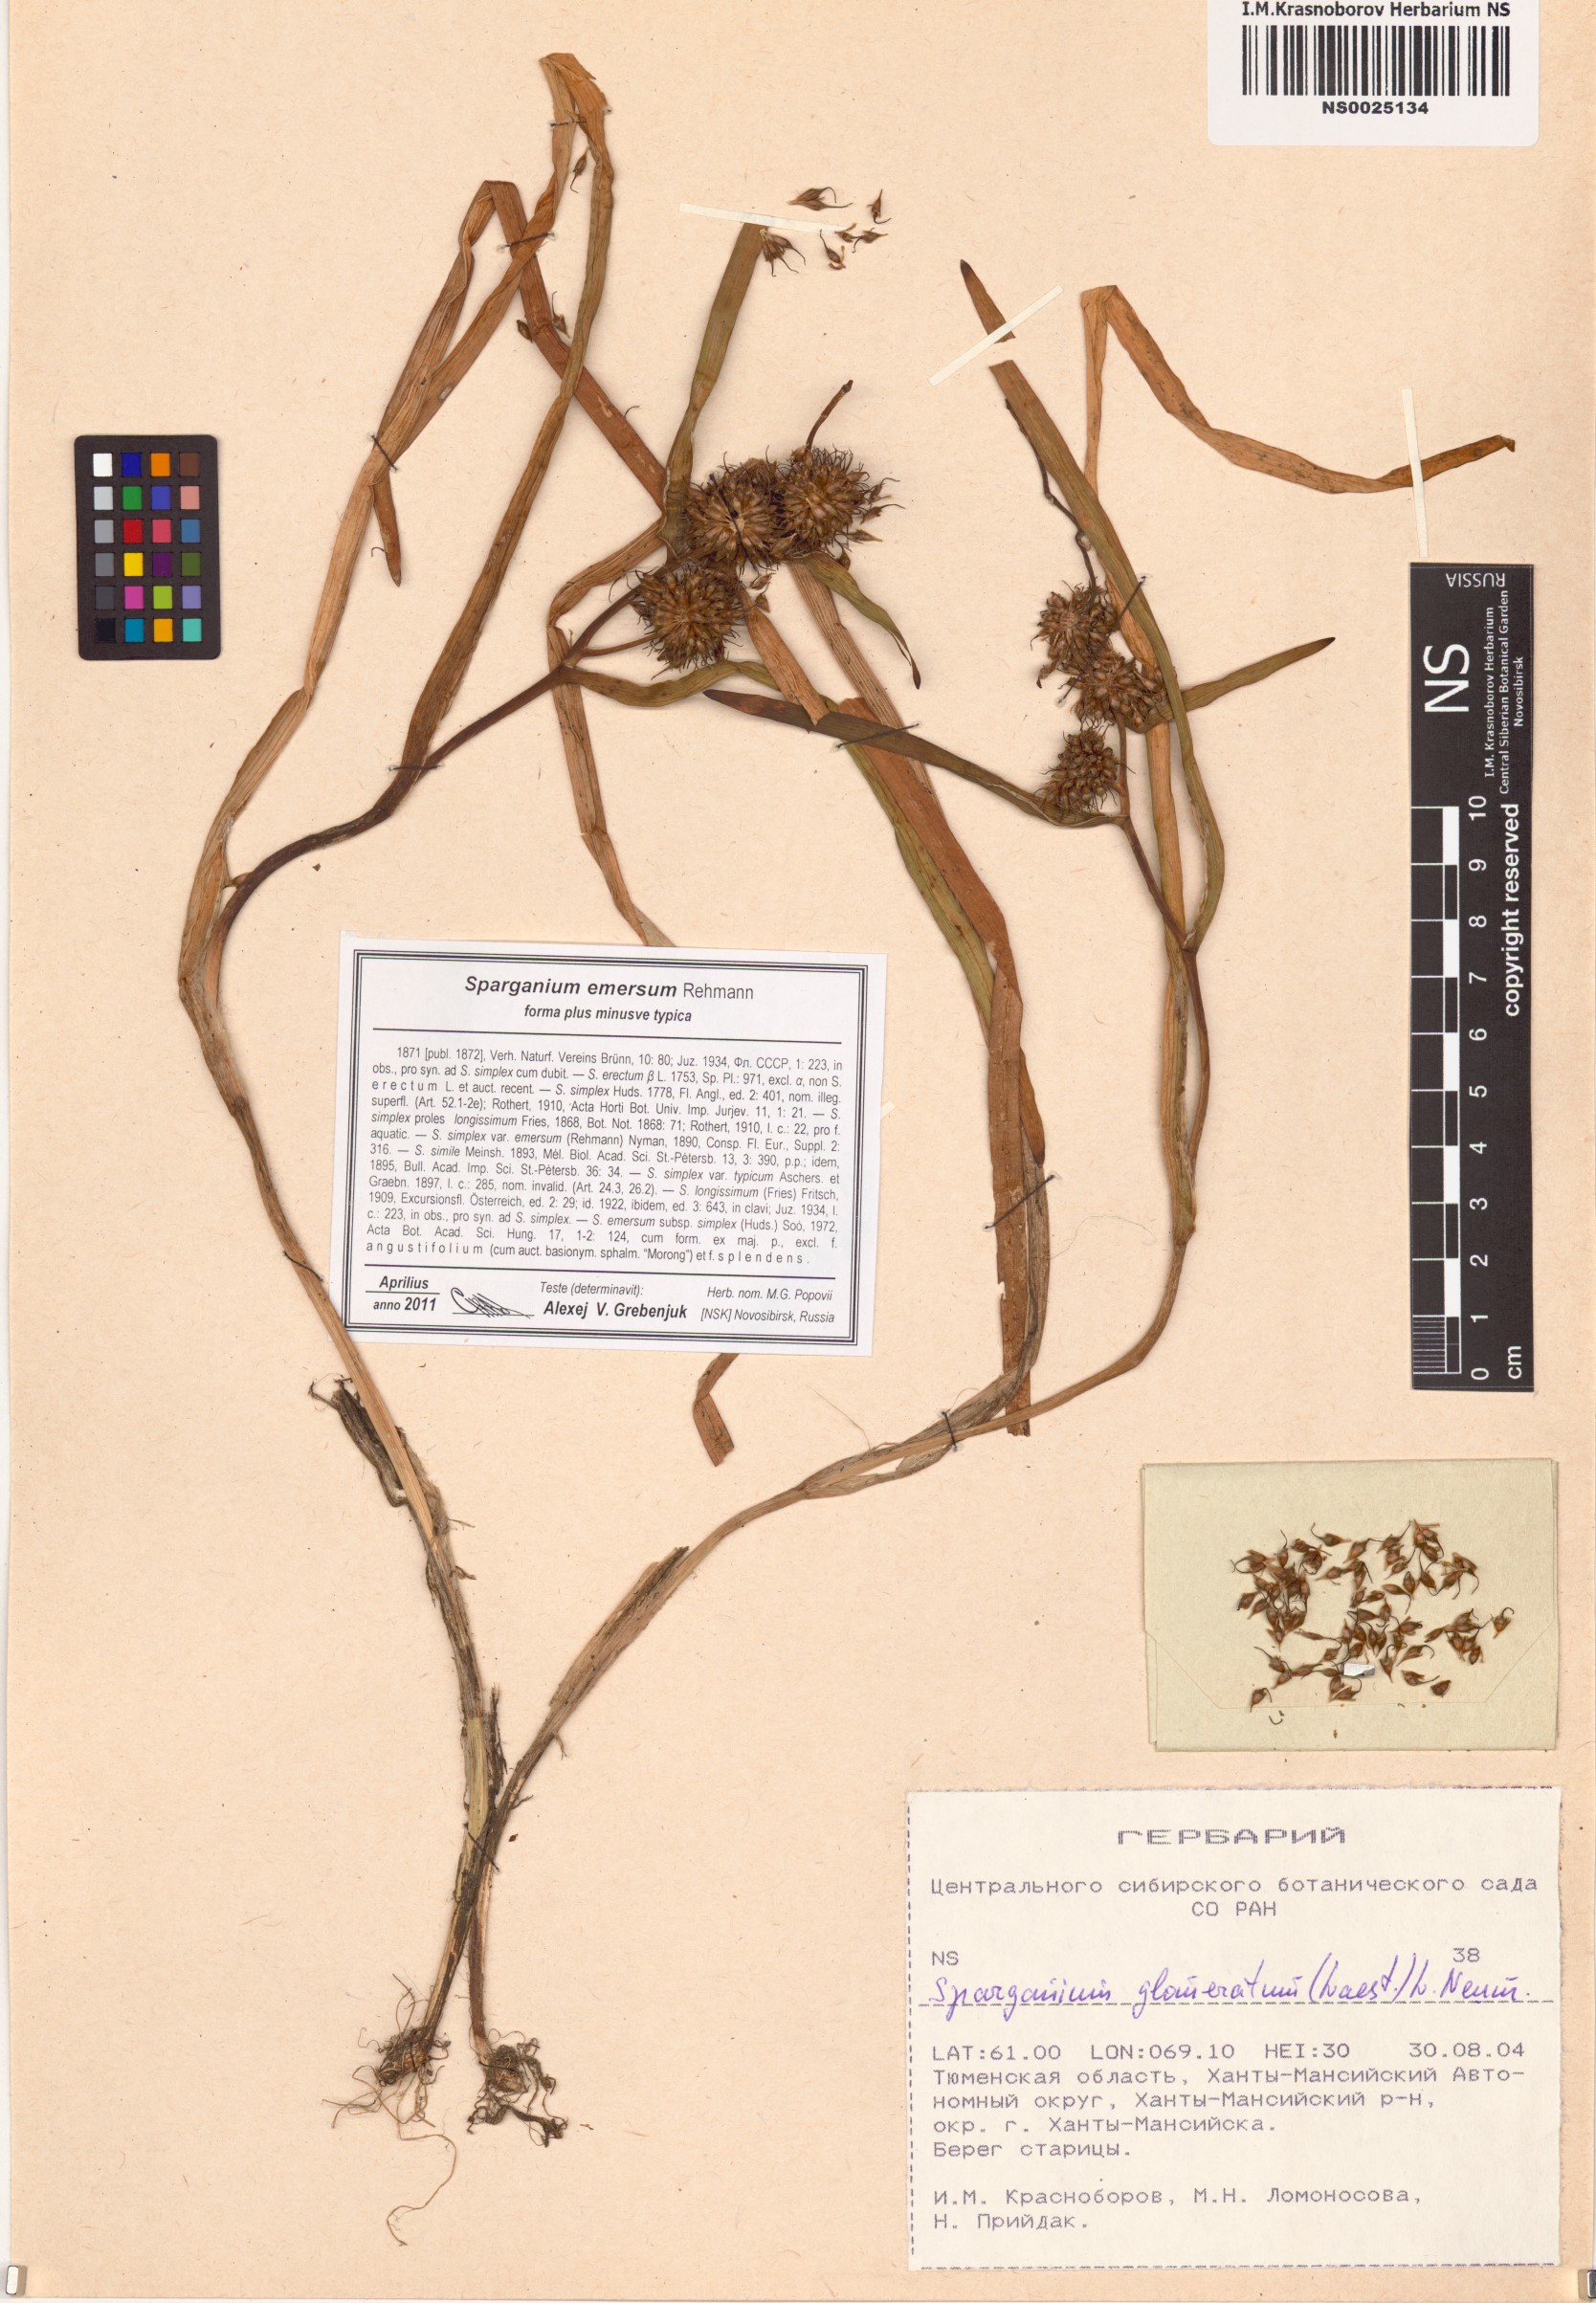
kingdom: Plantae
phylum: Tracheophyta
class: Liliopsida
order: Poales
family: Typhaceae
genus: Sparganium
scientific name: Sparganium emersum
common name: Unbranched bur-reed
